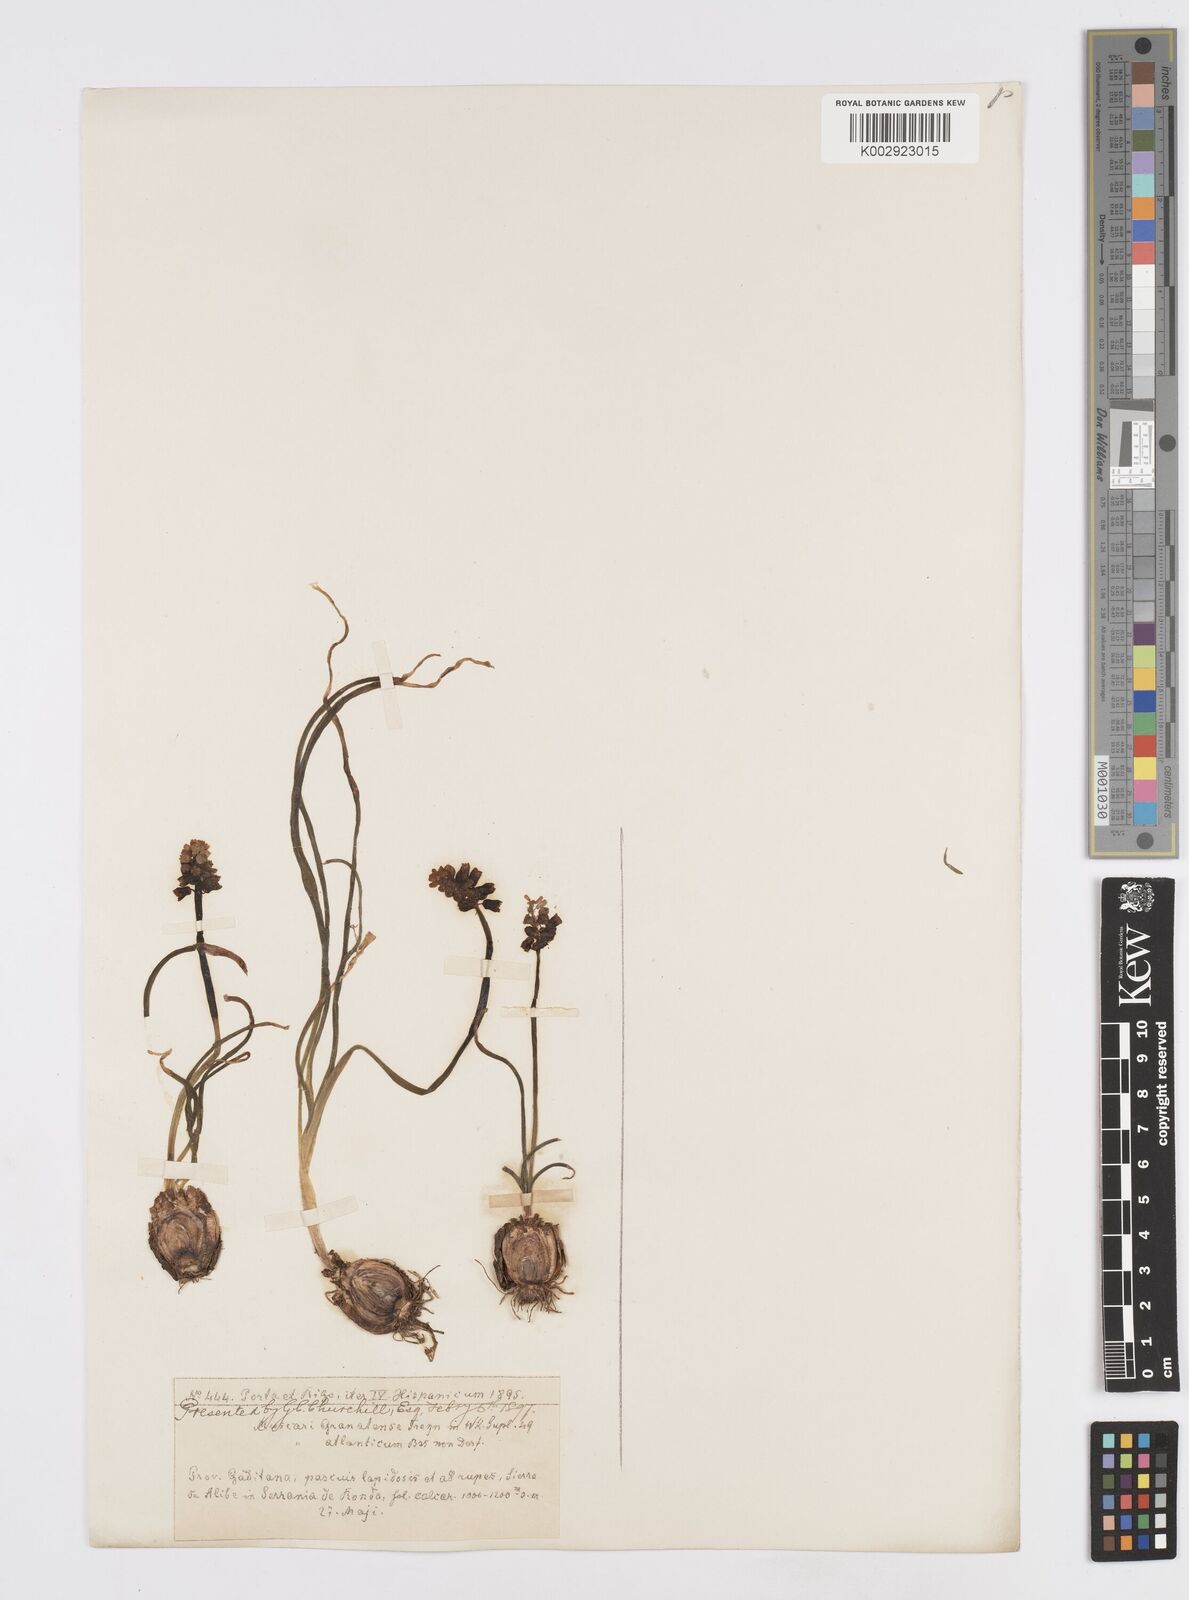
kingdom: Plantae
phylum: Tracheophyta
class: Liliopsida
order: Asparagales
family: Asparagaceae
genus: Muscari
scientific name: Muscari neglectum
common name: Grape-hyacinth
